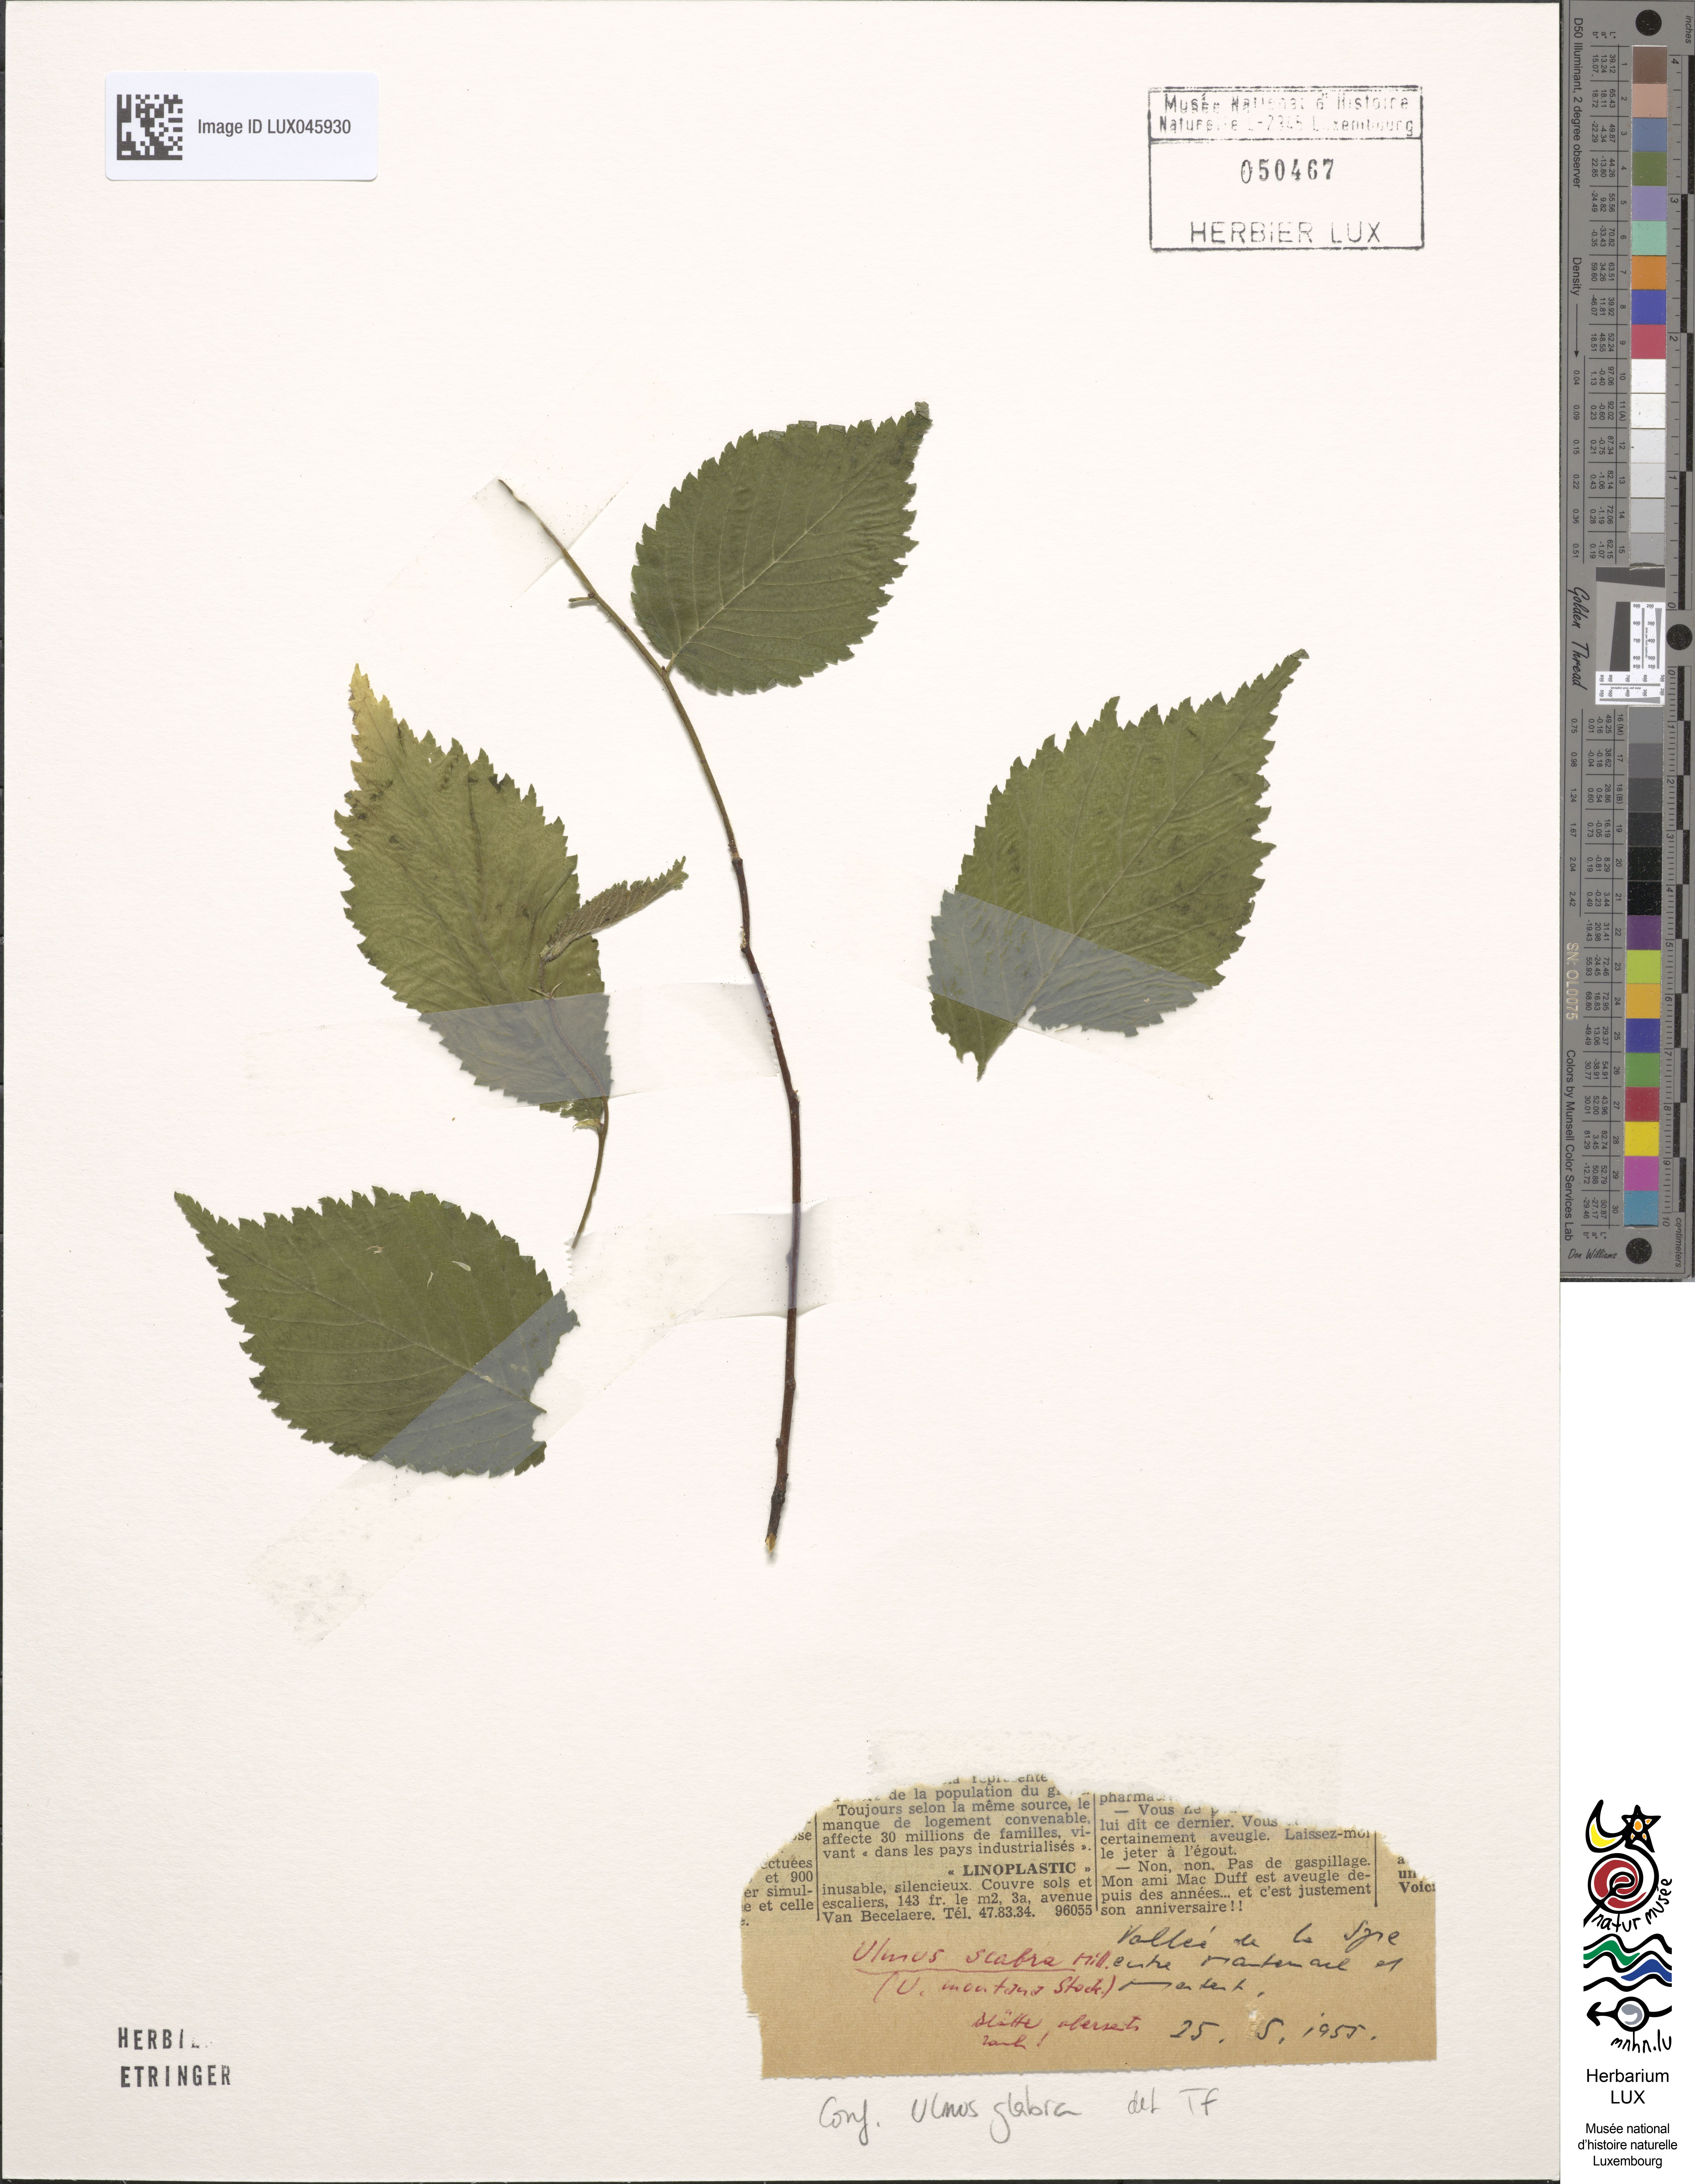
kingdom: Plantae
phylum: Tracheophyta
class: Magnoliopsida
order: Rosales
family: Ulmaceae
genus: Ulmus
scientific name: Ulmus glabra
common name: Wych elm
